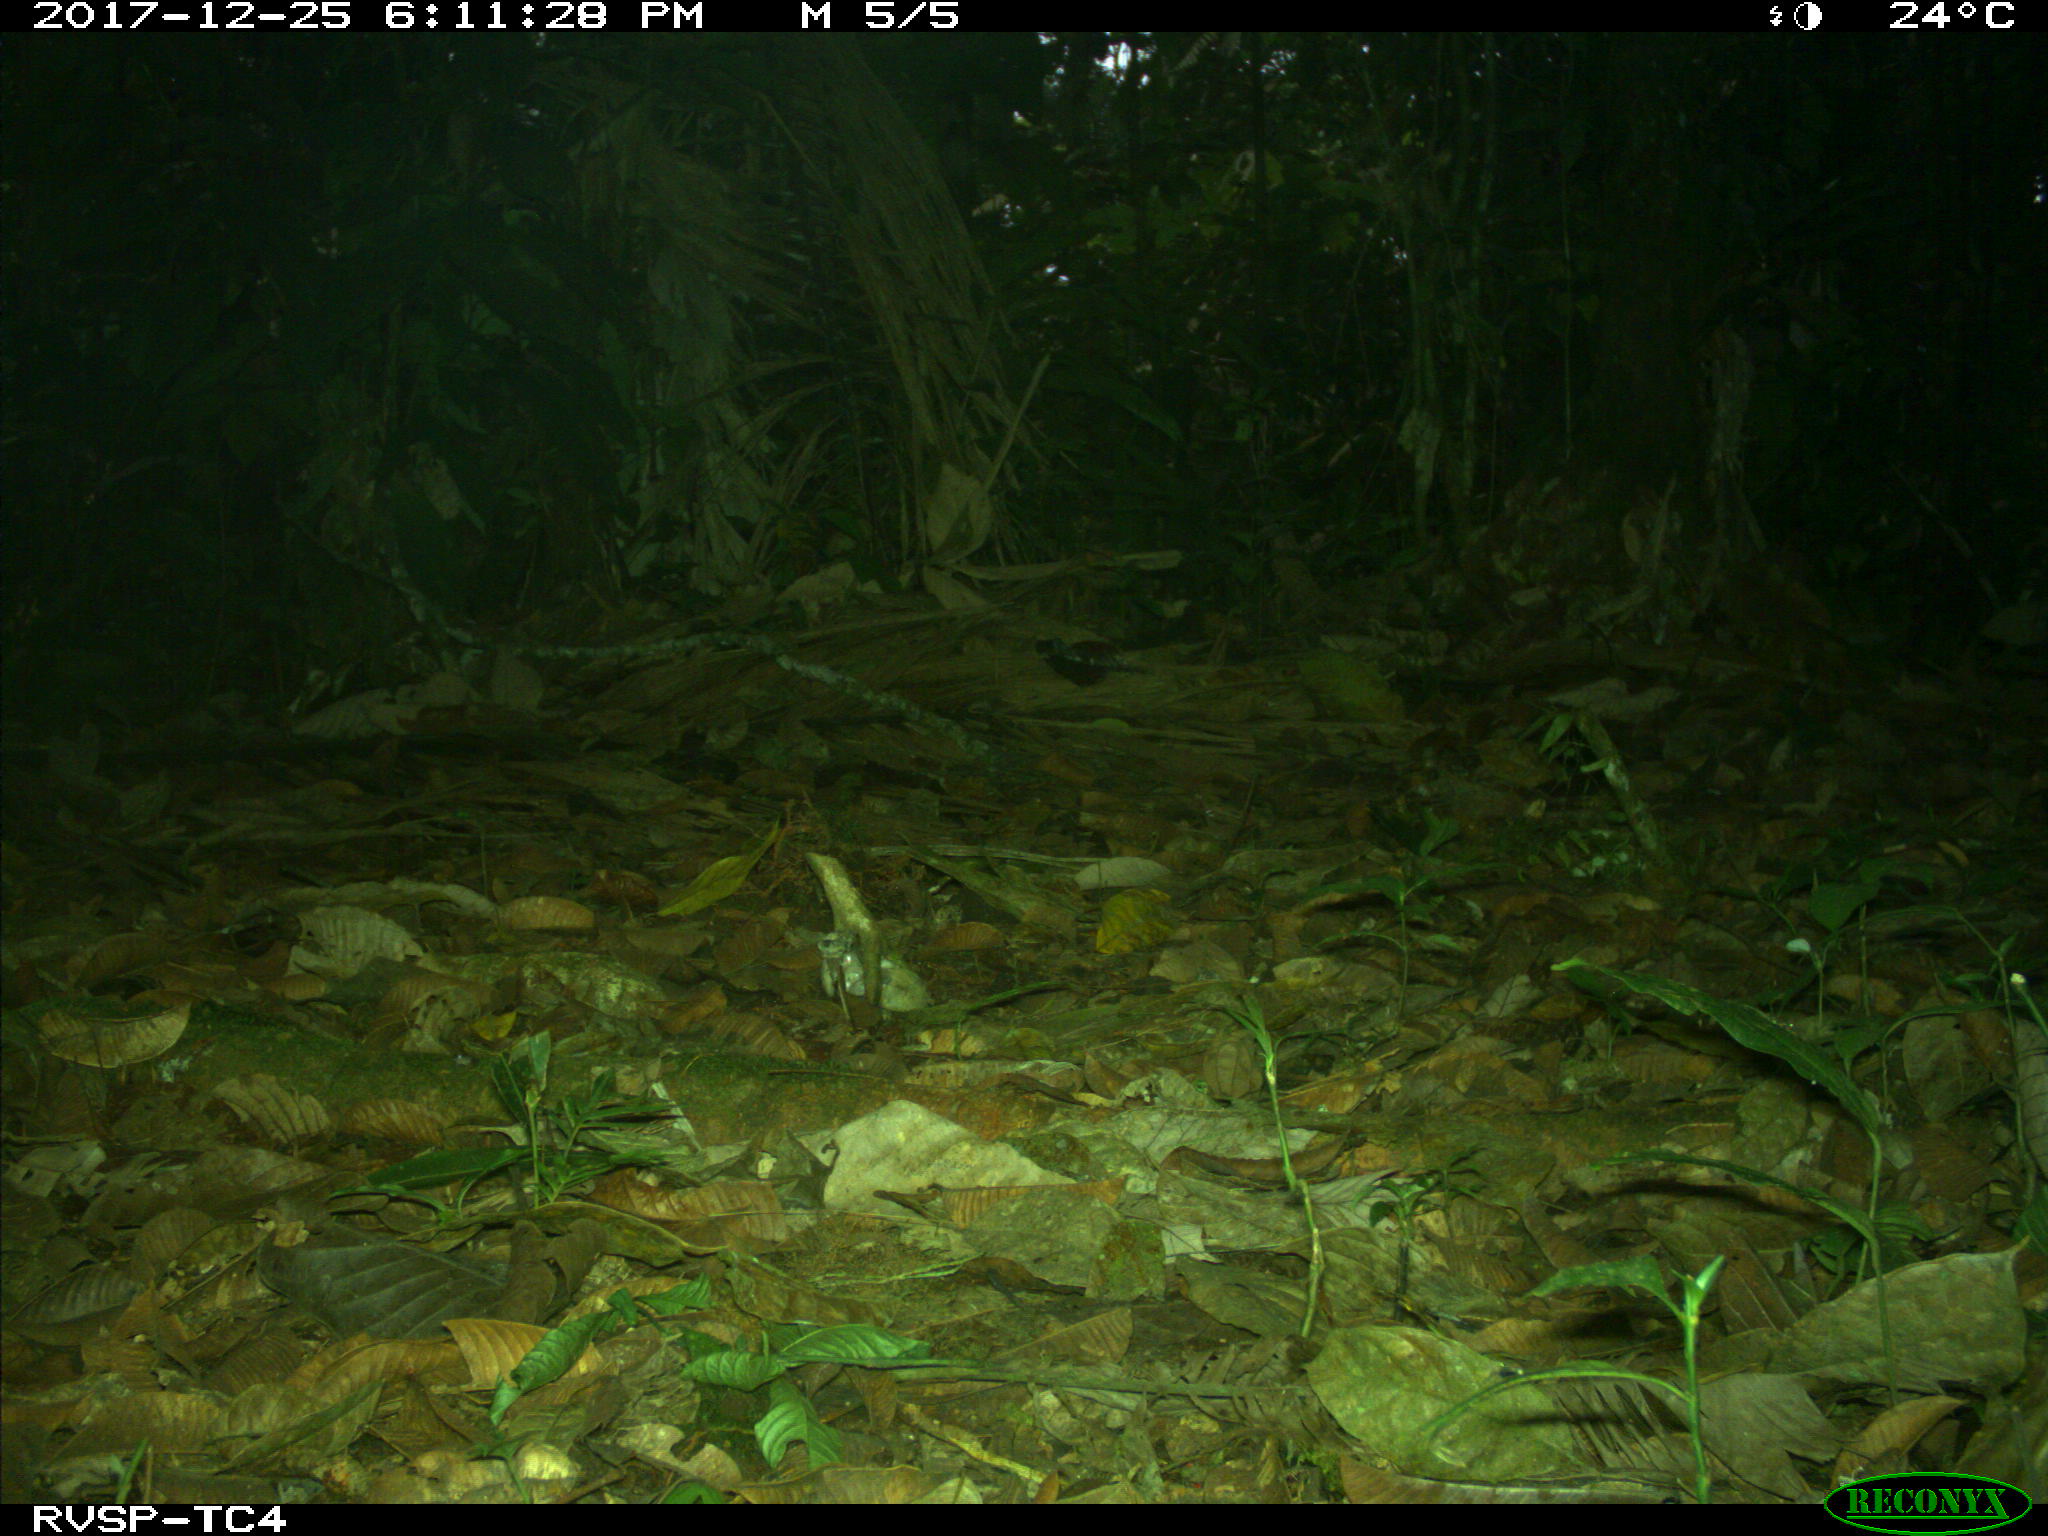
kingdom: Animalia
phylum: Chordata
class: Mammalia
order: Rodentia
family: Dasyproctidae
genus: Dasyprocta
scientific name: Dasyprocta punctata
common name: Central american agouti
